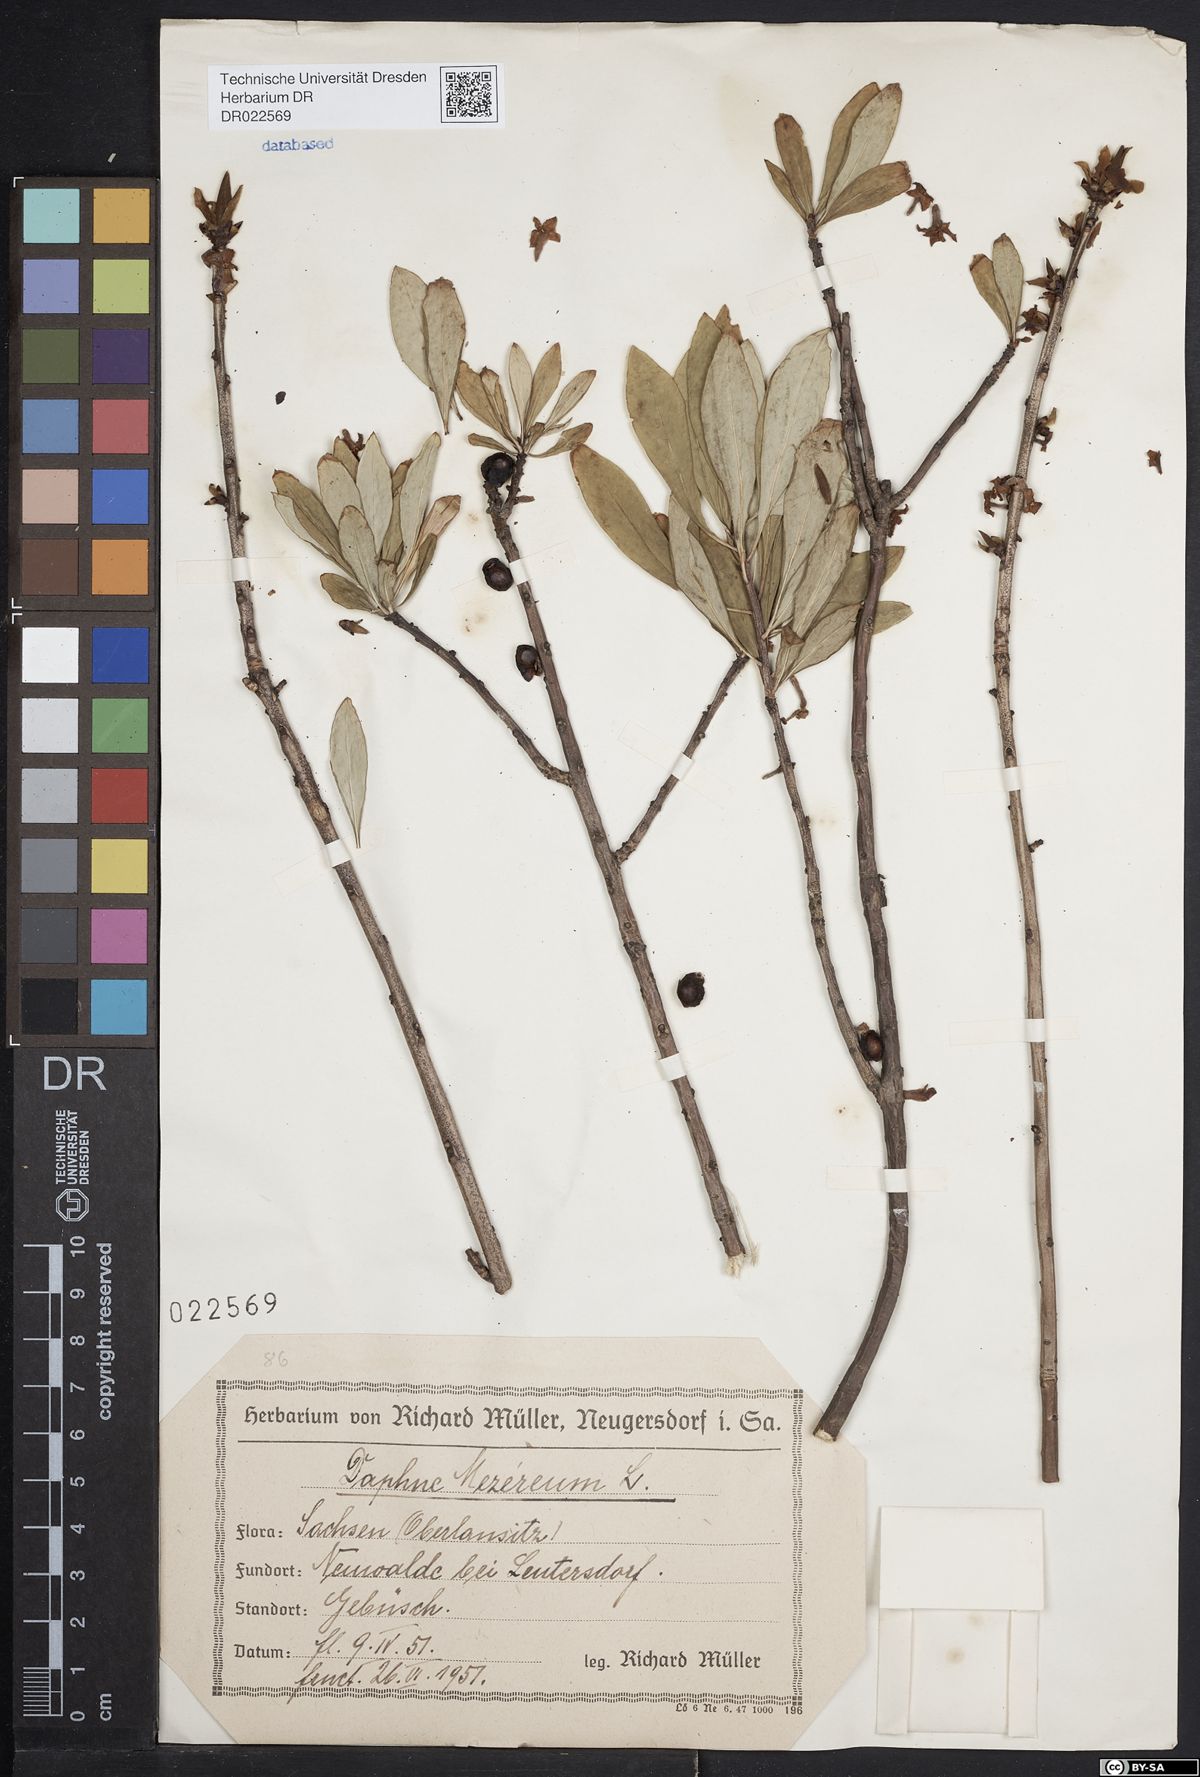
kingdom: Plantae
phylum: Tracheophyta
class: Magnoliopsida
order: Malvales
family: Thymelaeaceae
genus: Daphne
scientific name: Daphne mezereum
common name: Mezereon
